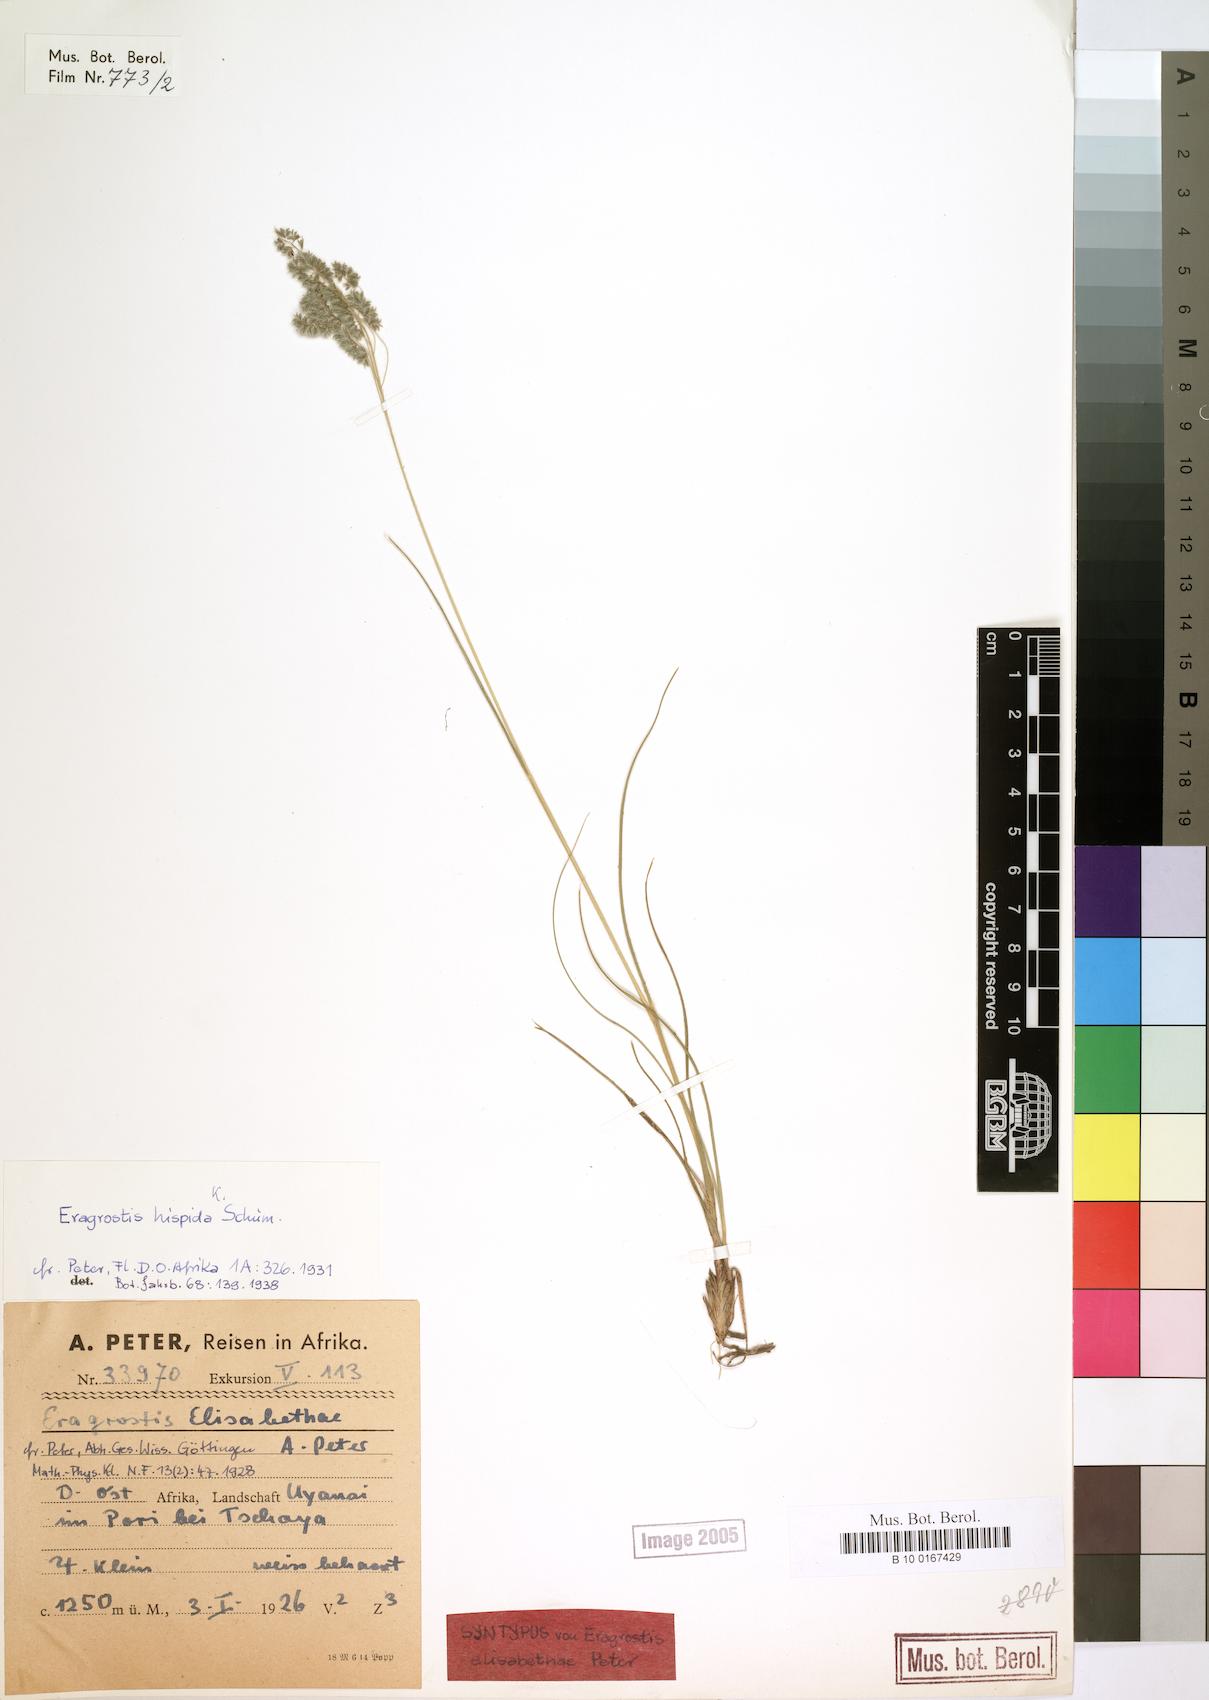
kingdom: Plantae
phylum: Tracheophyta
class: Liliopsida
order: Poales
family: Poaceae
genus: Eragrostis
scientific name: Eragrostis hispida
